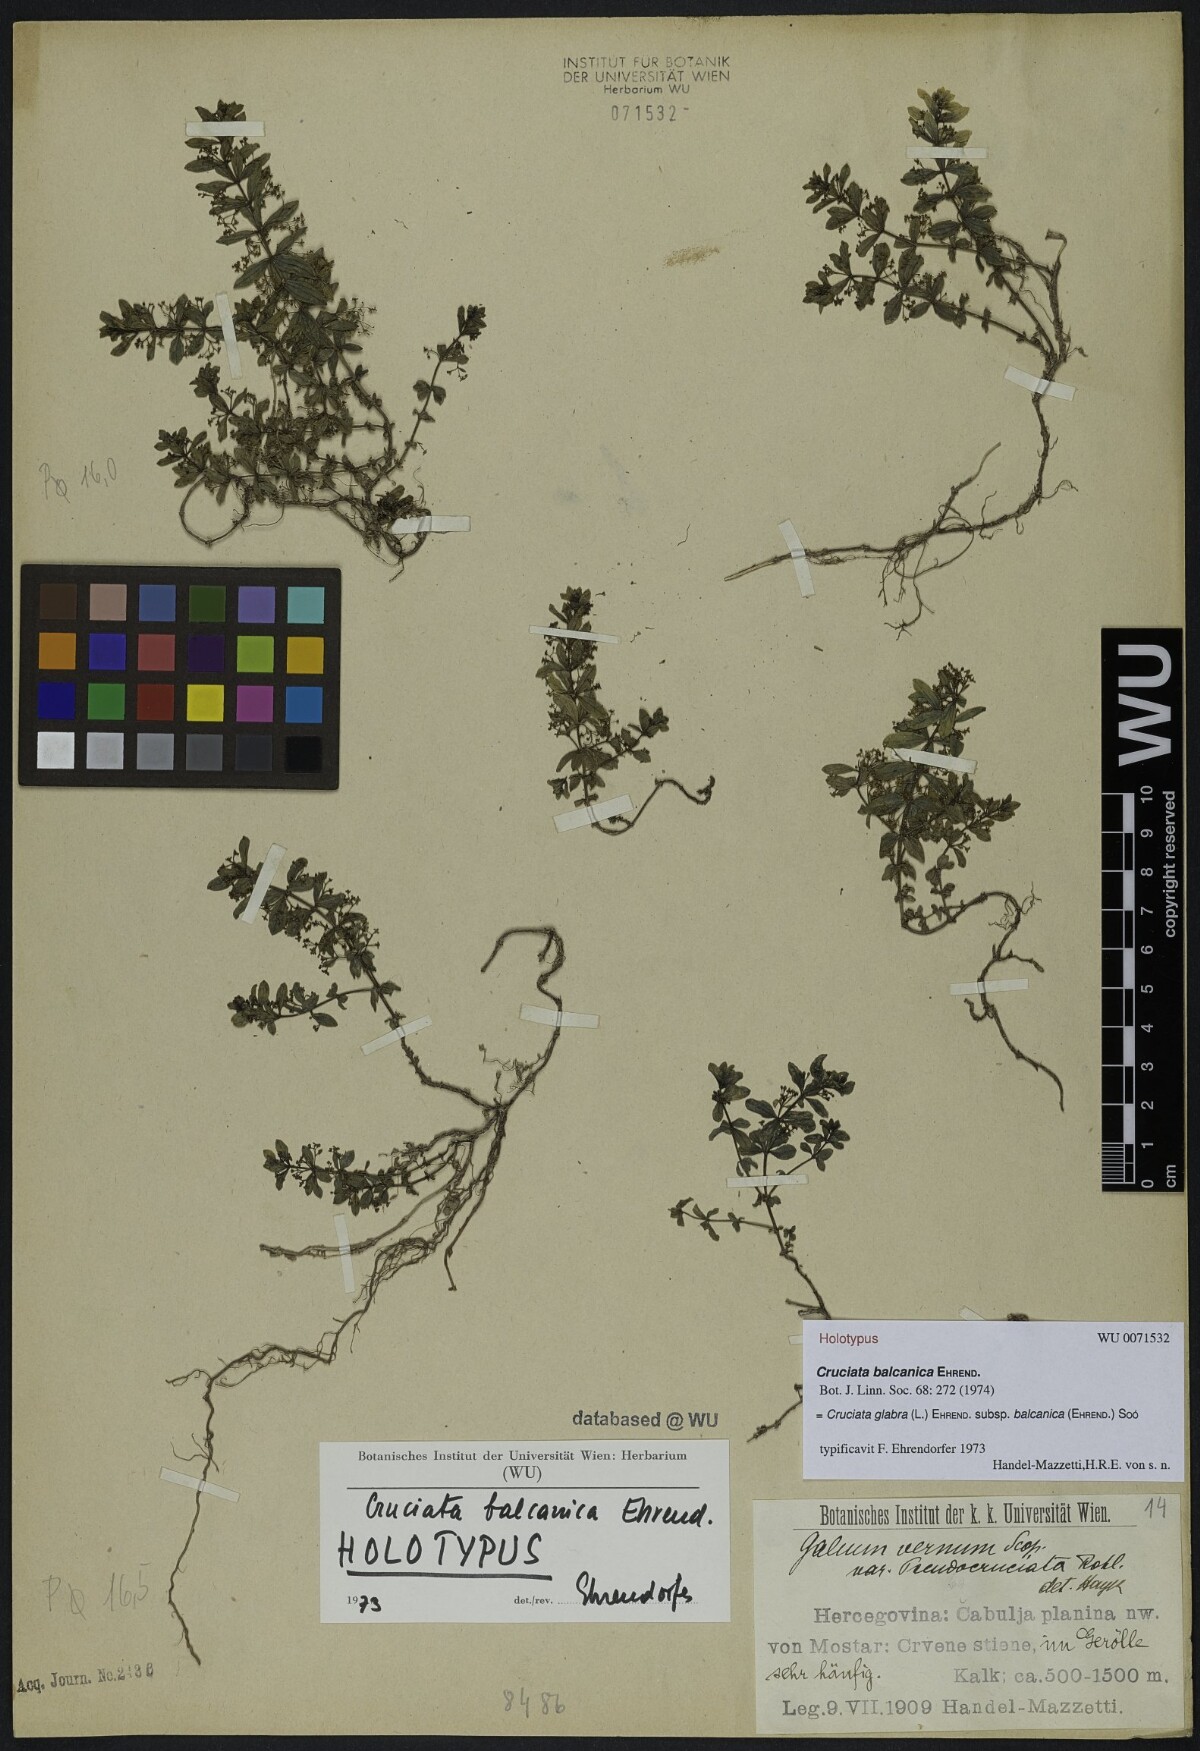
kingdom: Plantae
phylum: Tracheophyta
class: Magnoliopsida
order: Gentianales
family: Rubiaceae
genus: Cruciata
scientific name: Cruciata glabra
